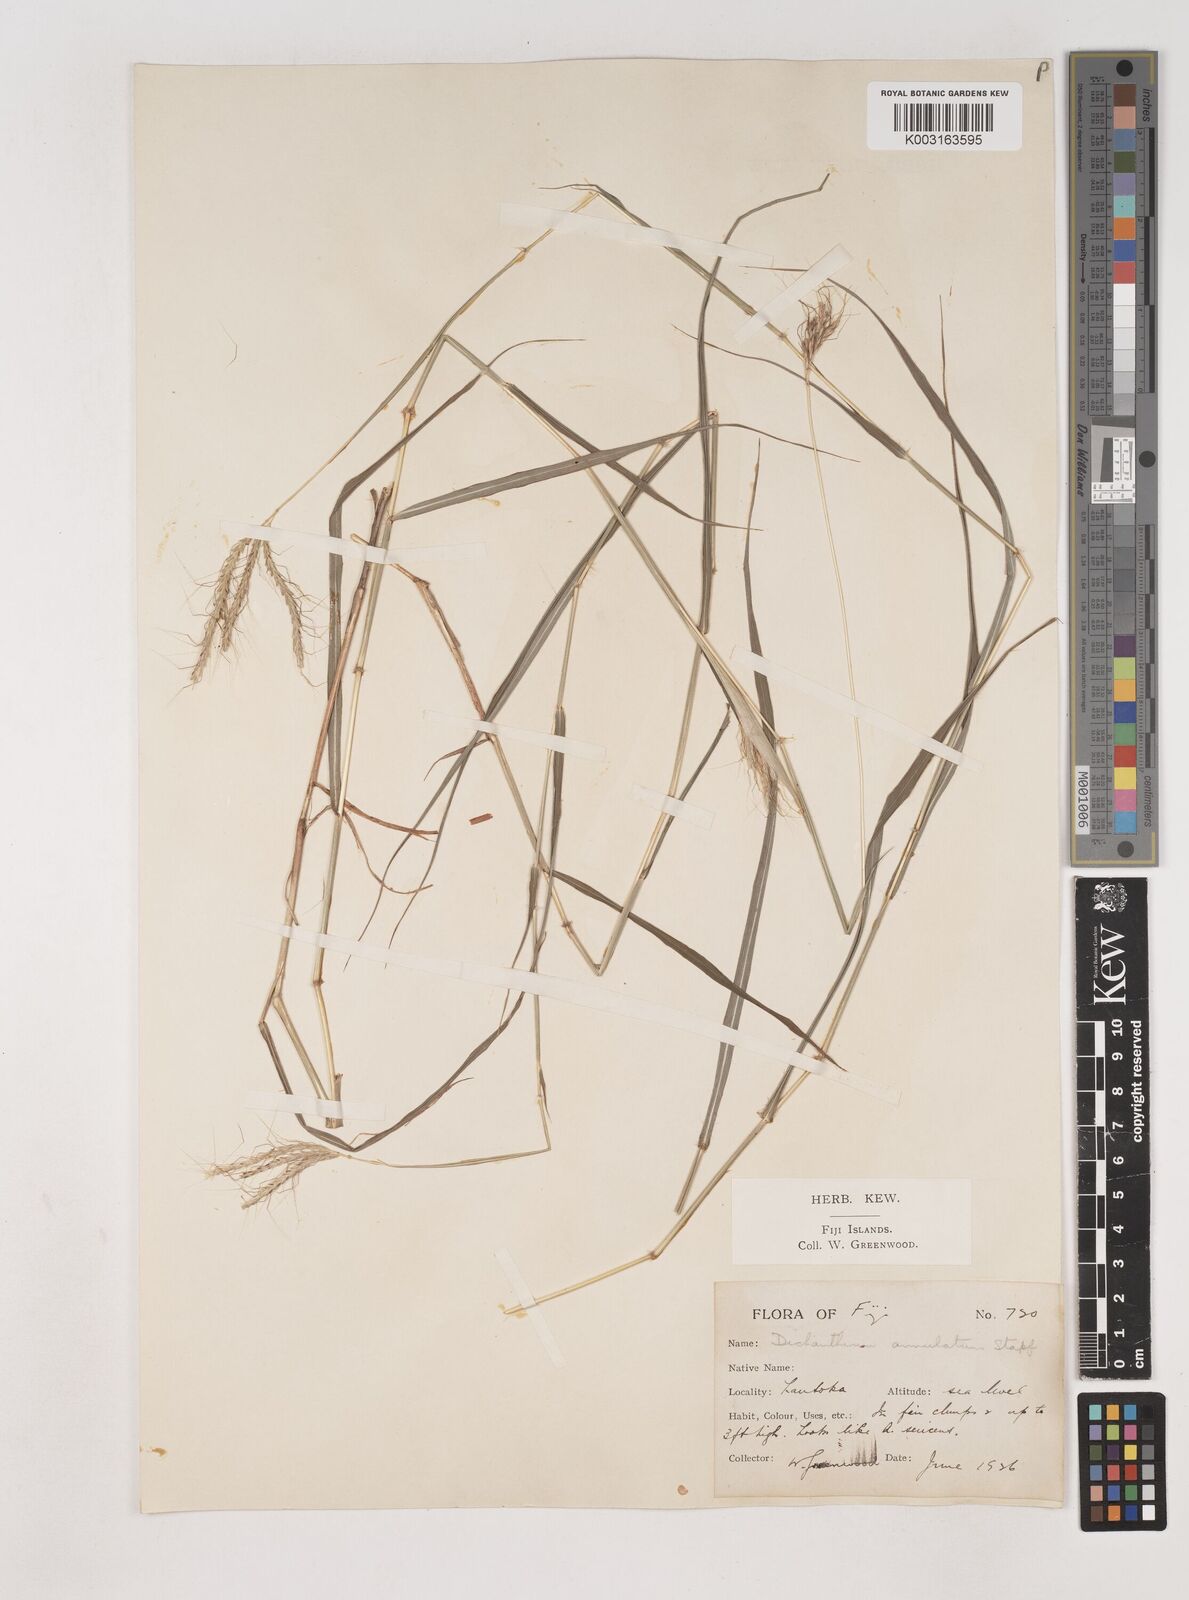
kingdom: Plantae
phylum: Tracheophyta
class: Liliopsida
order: Poales
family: Poaceae
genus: Dichanthium
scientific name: Dichanthium annulatum
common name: Kleberg's bluestem
